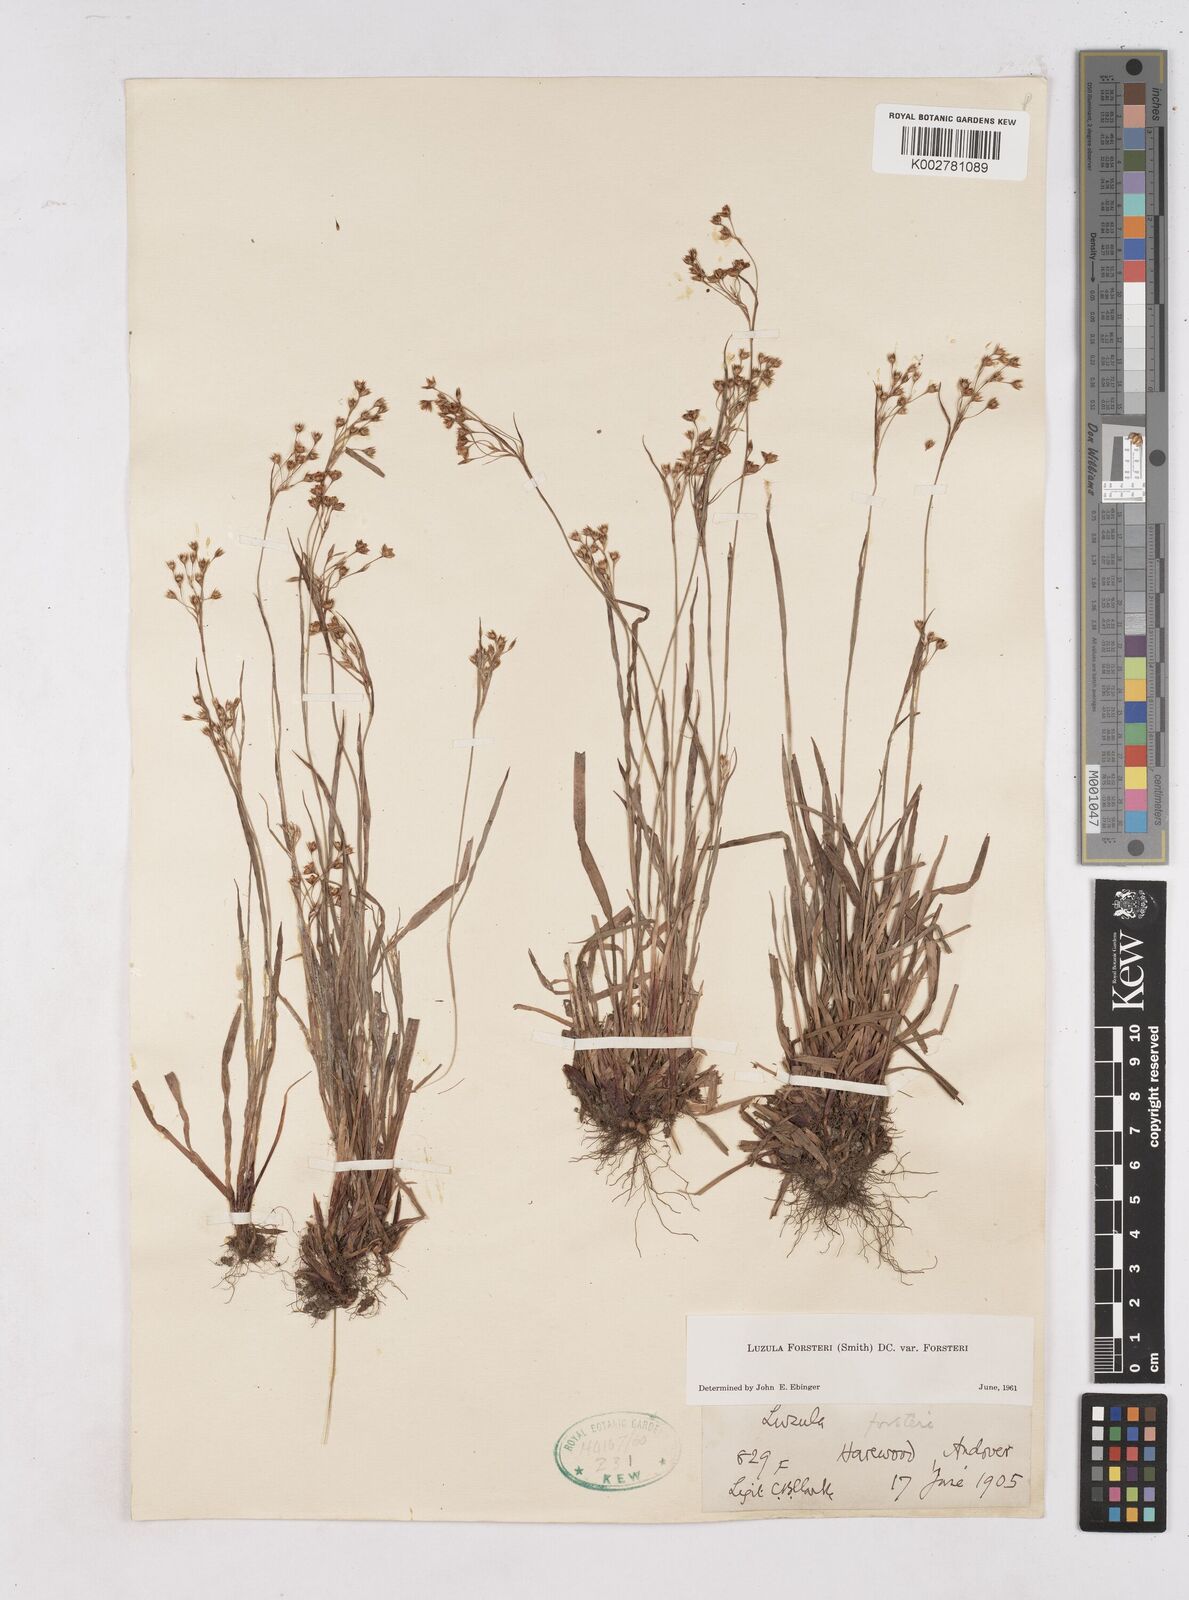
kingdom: Plantae
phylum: Tracheophyta
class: Liliopsida
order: Poales
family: Juncaceae
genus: Luzula
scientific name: Luzula forsteri
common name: Southern wood-rush
